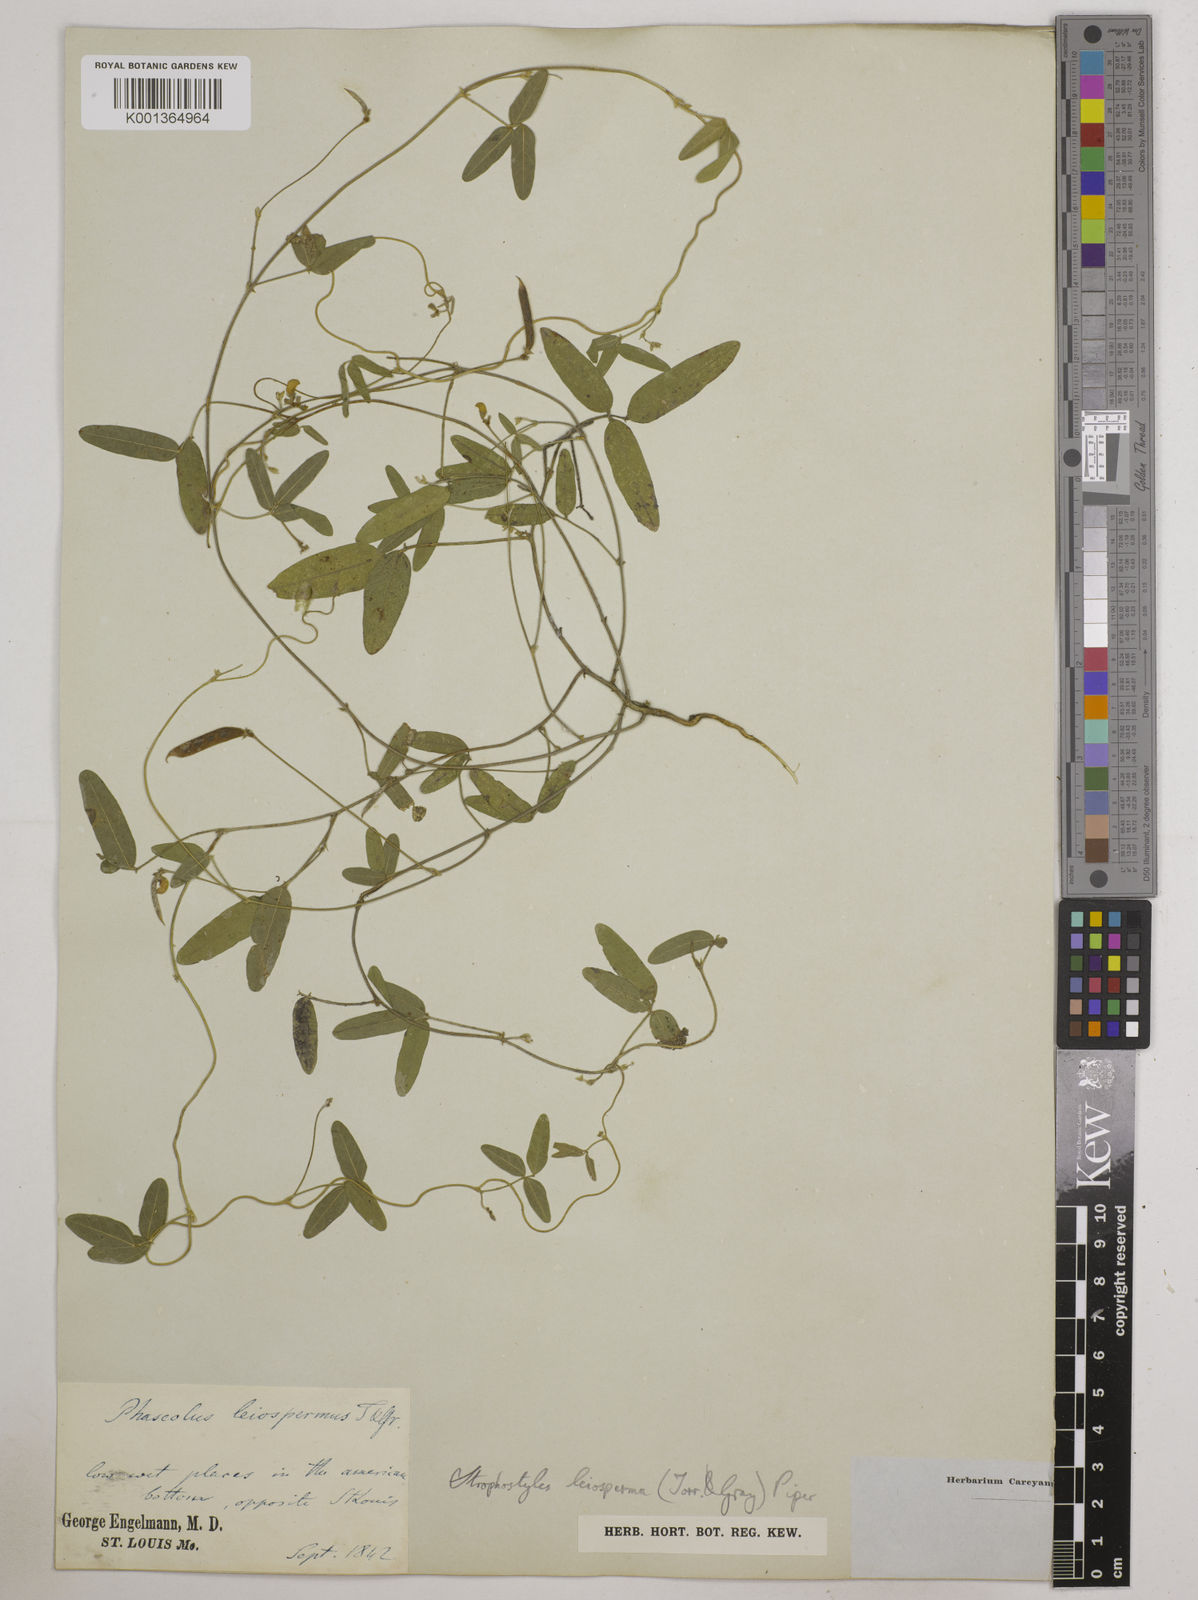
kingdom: Plantae
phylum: Tracheophyta
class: Magnoliopsida
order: Fabales
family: Fabaceae
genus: Strophostyles
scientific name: Strophostyles leiosperma
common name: Smooth-seed wild bean
